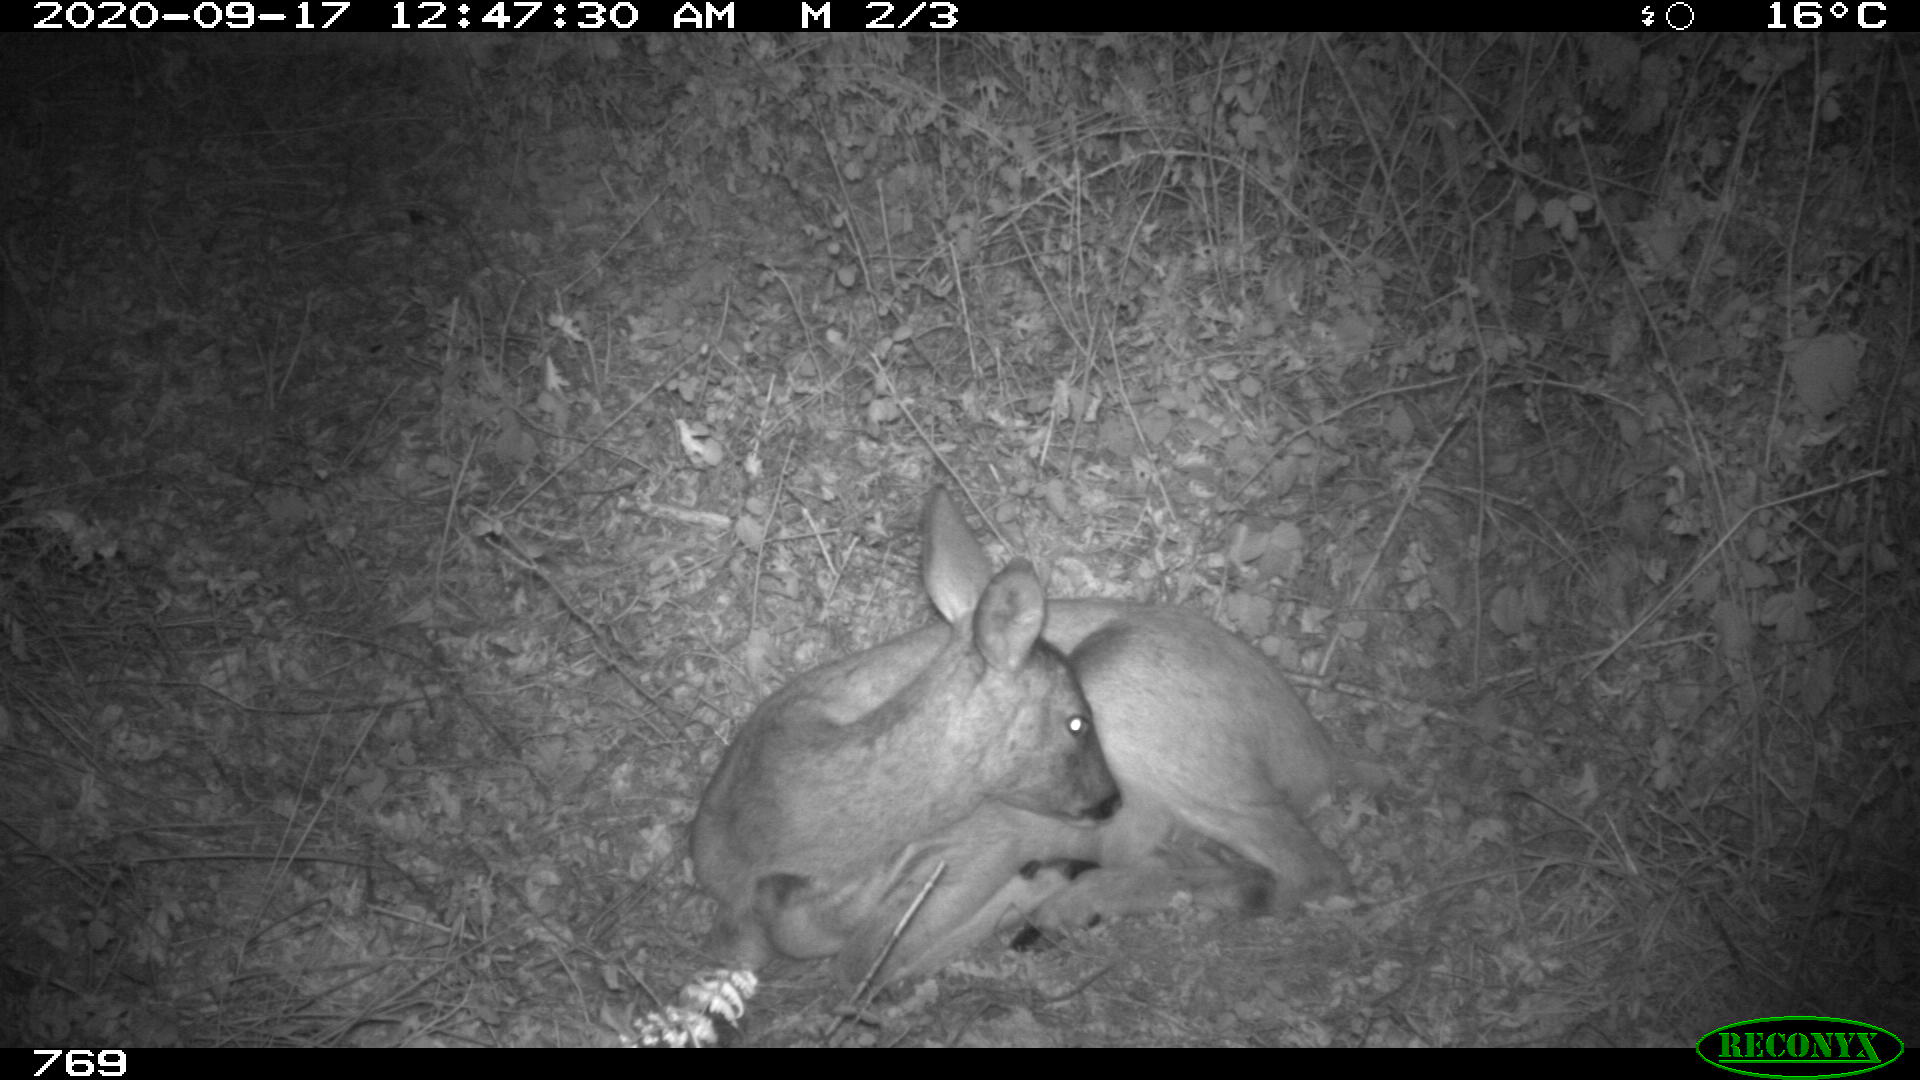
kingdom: Animalia
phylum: Chordata
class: Mammalia
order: Artiodactyla
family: Cervidae
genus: Capreolus
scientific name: Capreolus capreolus
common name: Western roe deer
